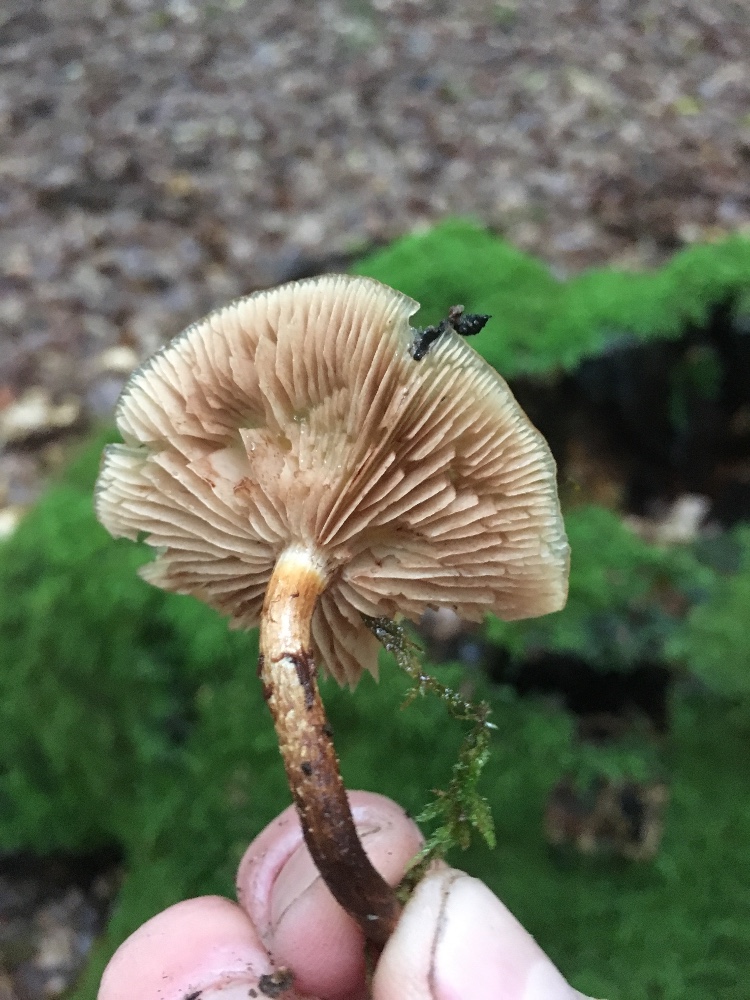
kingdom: Fungi
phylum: Basidiomycota
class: Agaricomycetes
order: Agaricales
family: Strophariaceae
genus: Kuehneromyces
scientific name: Kuehneromyces mutabilis
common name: foranderlig skælhat
